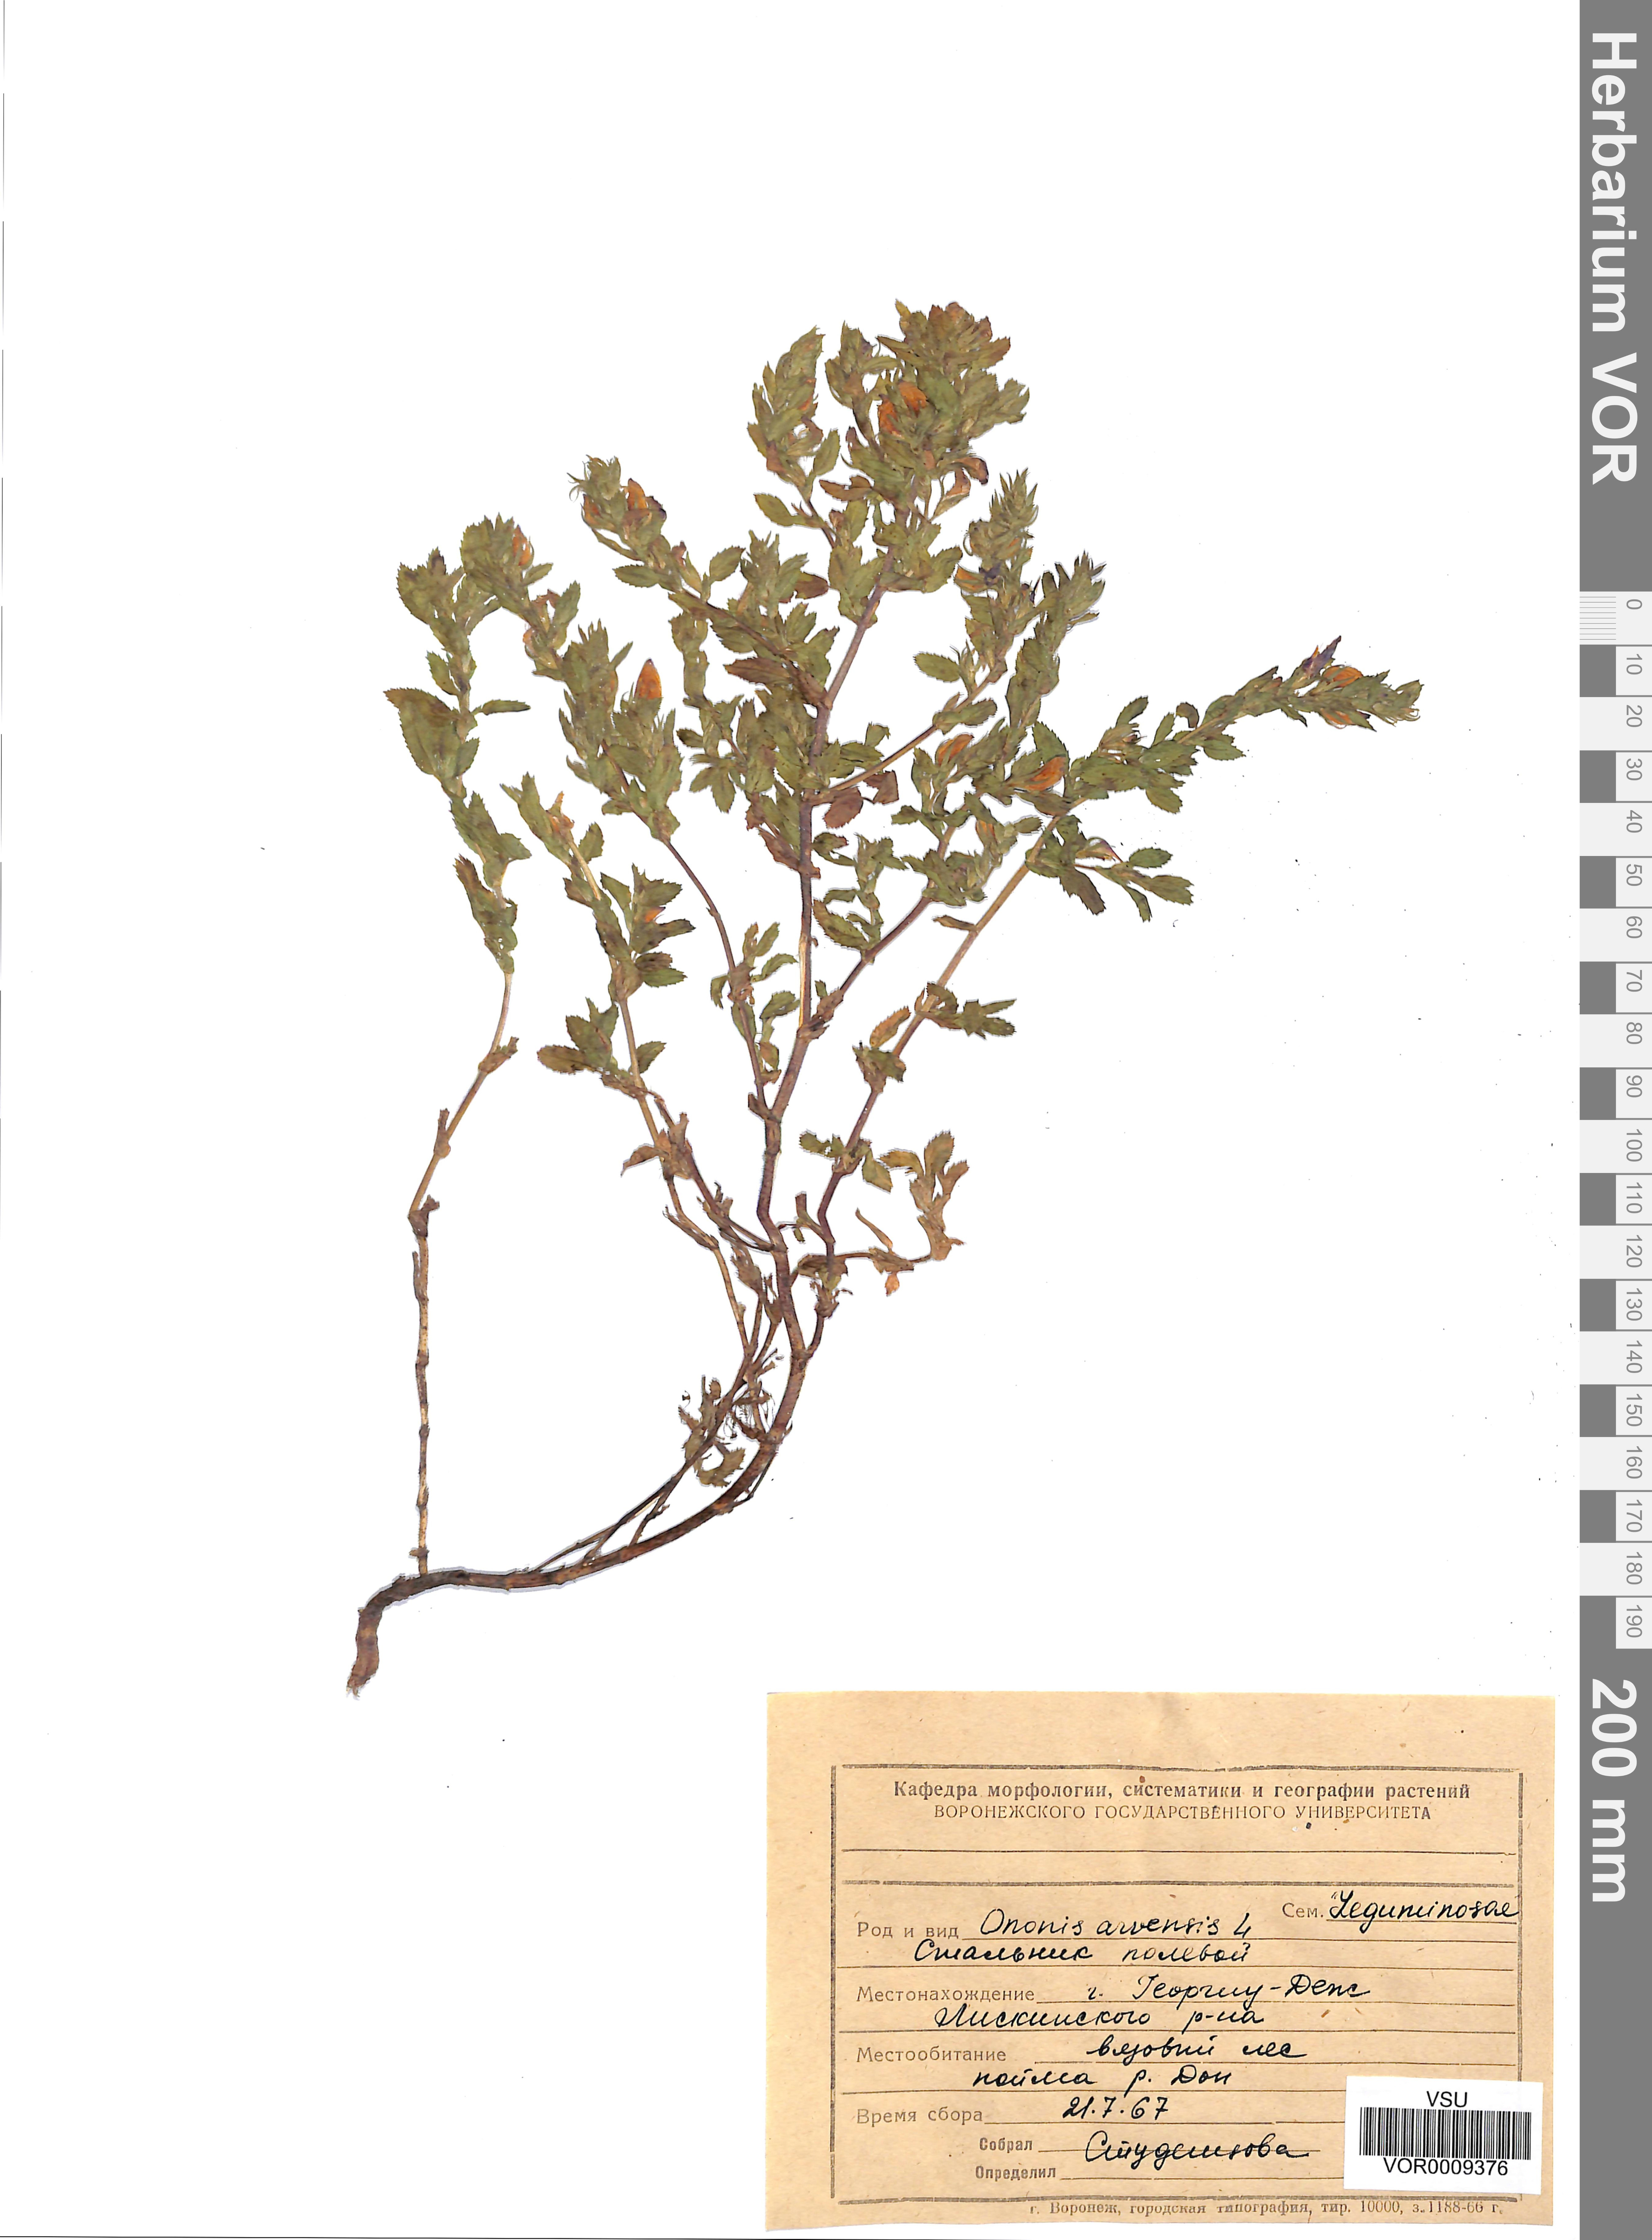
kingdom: Plantae
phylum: Tracheophyta
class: Magnoliopsida
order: Fabales
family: Fabaceae
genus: Ononis
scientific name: Ononis arvensis
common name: Field restharrow
